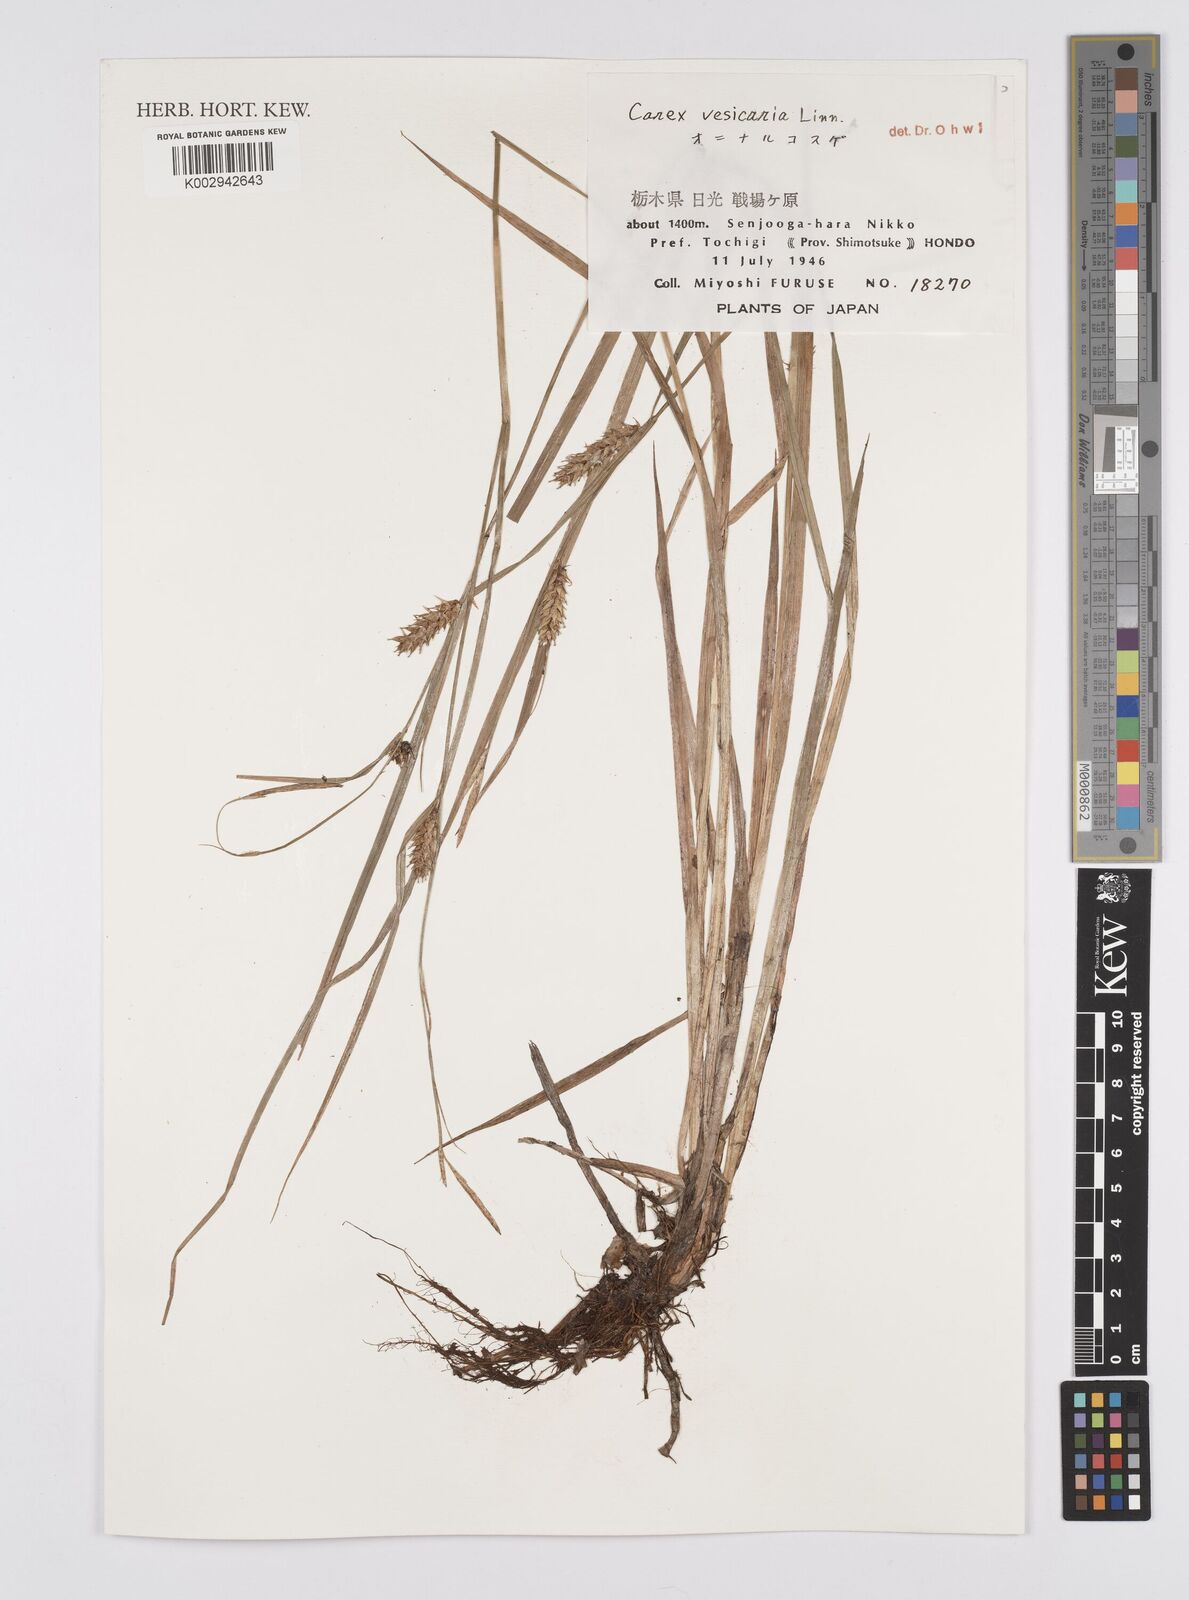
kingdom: Plantae
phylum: Tracheophyta
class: Liliopsida
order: Poales
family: Cyperaceae
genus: Carex
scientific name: Carex vesicaria
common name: Bladder-sedge
